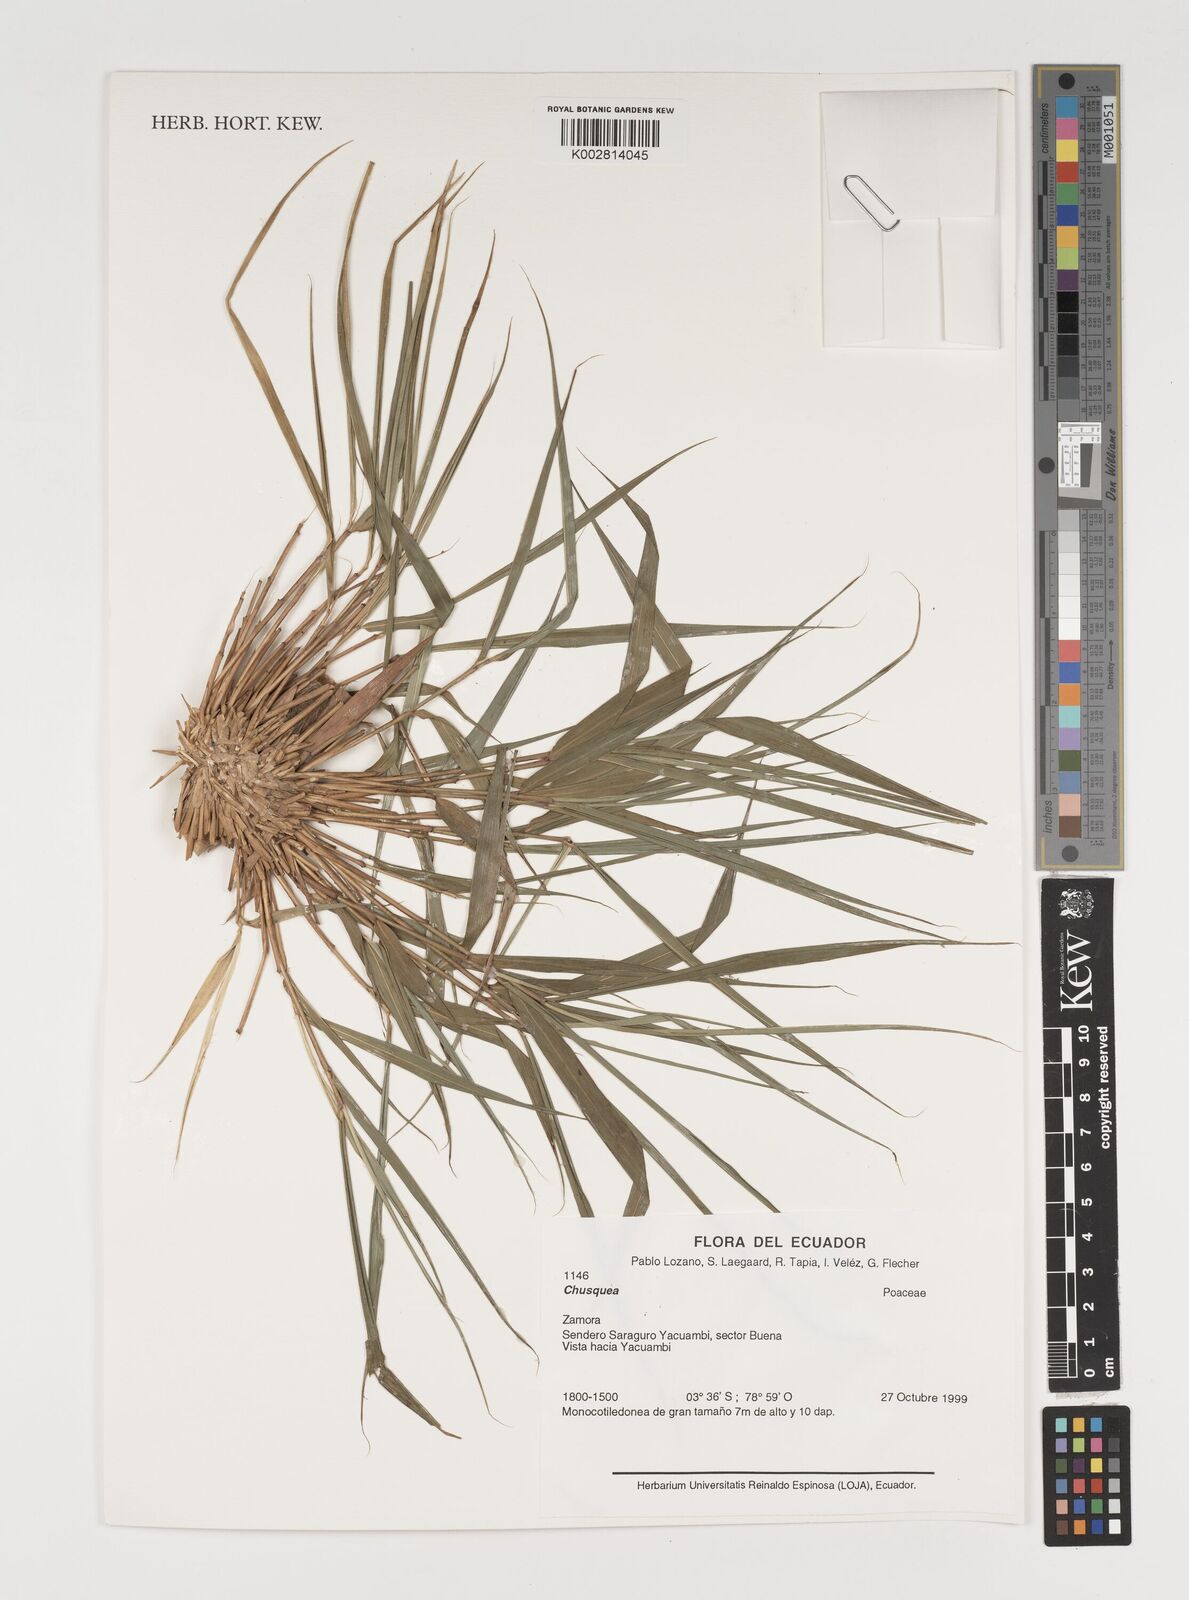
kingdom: Plantae
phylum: Tracheophyta
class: Liliopsida
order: Poales
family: Poaceae
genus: Chusquea
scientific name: Chusquea
